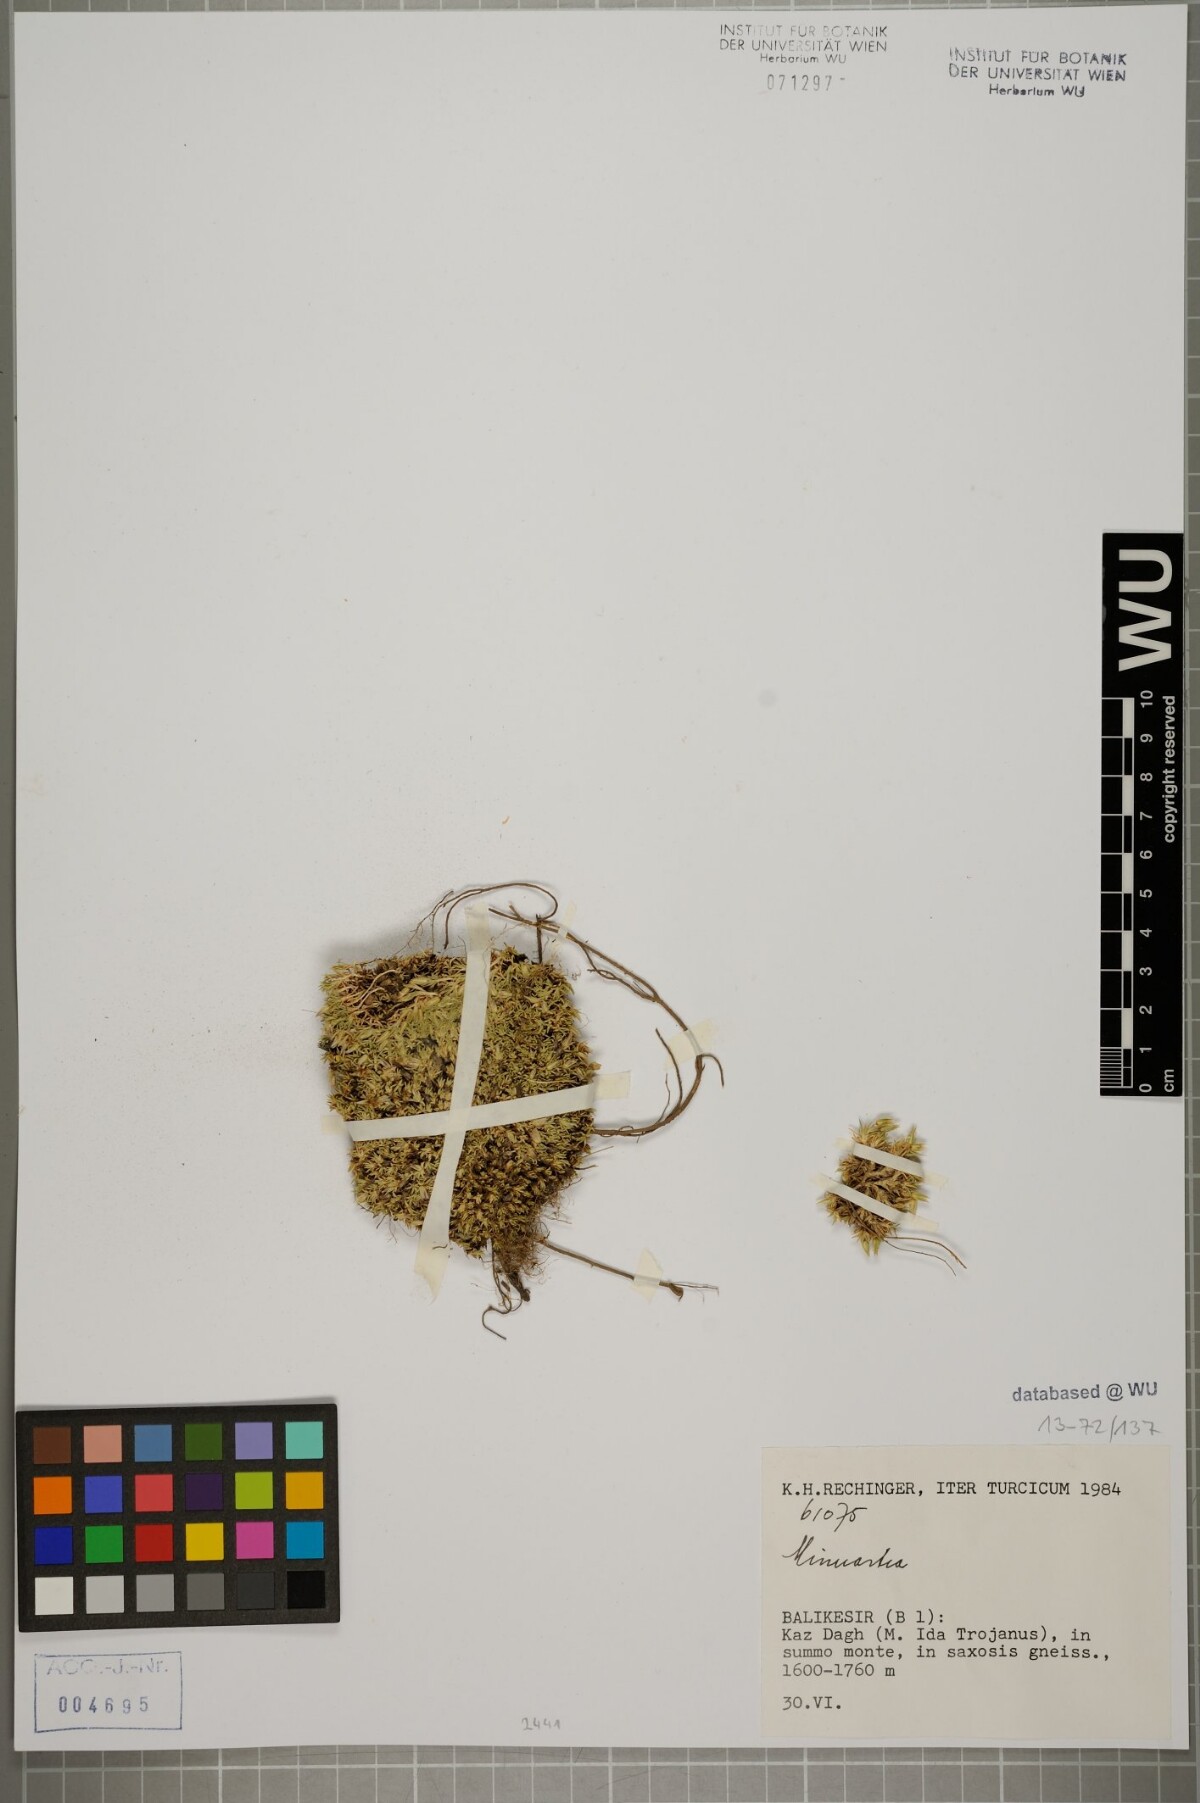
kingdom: Plantae
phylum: Tracheophyta
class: Magnoliopsida
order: Caryophyllales
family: Caryophyllaceae
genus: Minuartia
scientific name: Minuartia hirsuta
